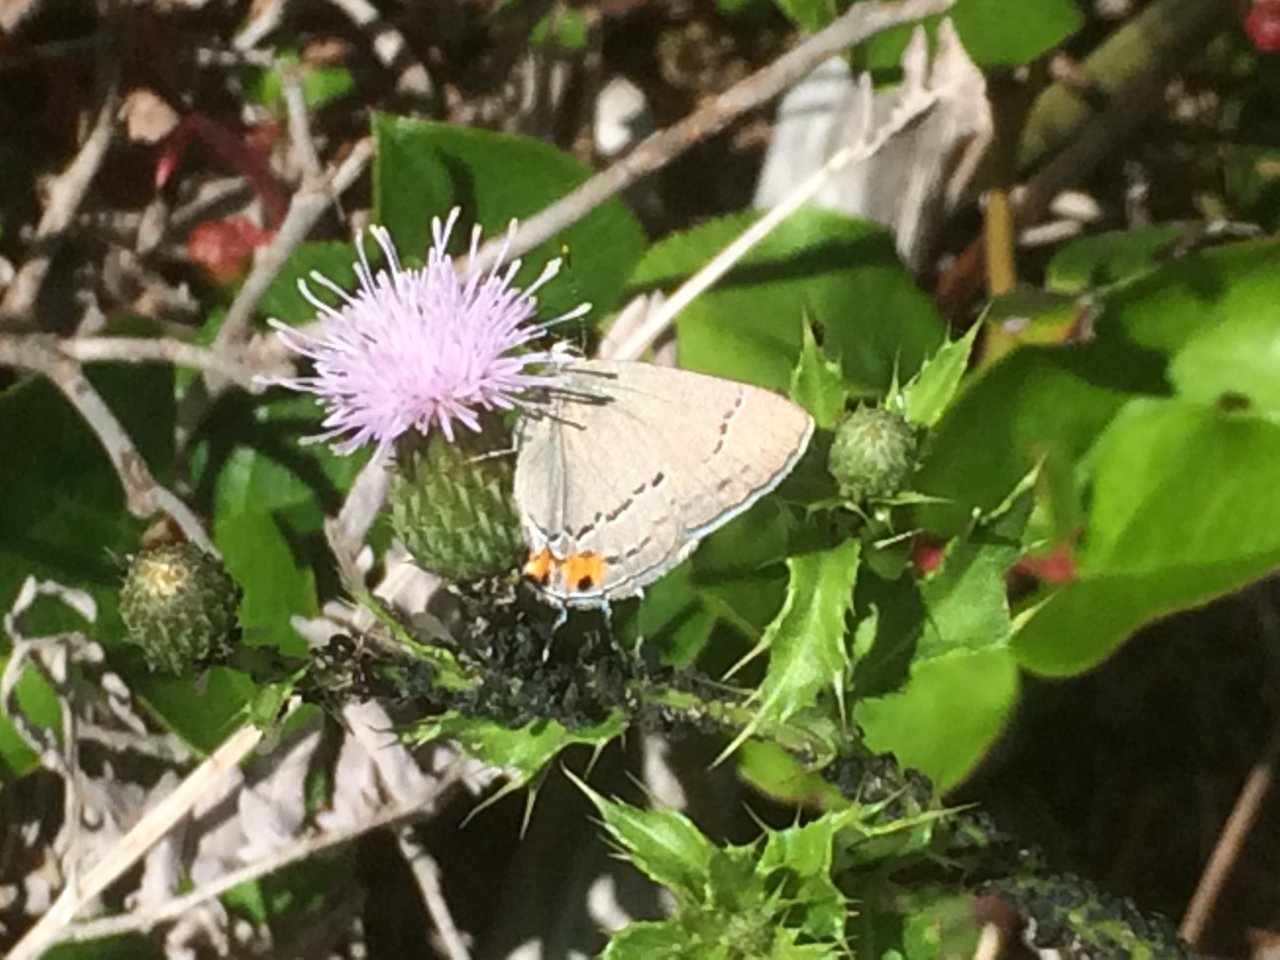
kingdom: Animalia
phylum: Arthropoda
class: Insecta
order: Lepidoptera
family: Lycaenidae
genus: Strymon
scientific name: Strymon melinus
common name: Gray Hairstreak
